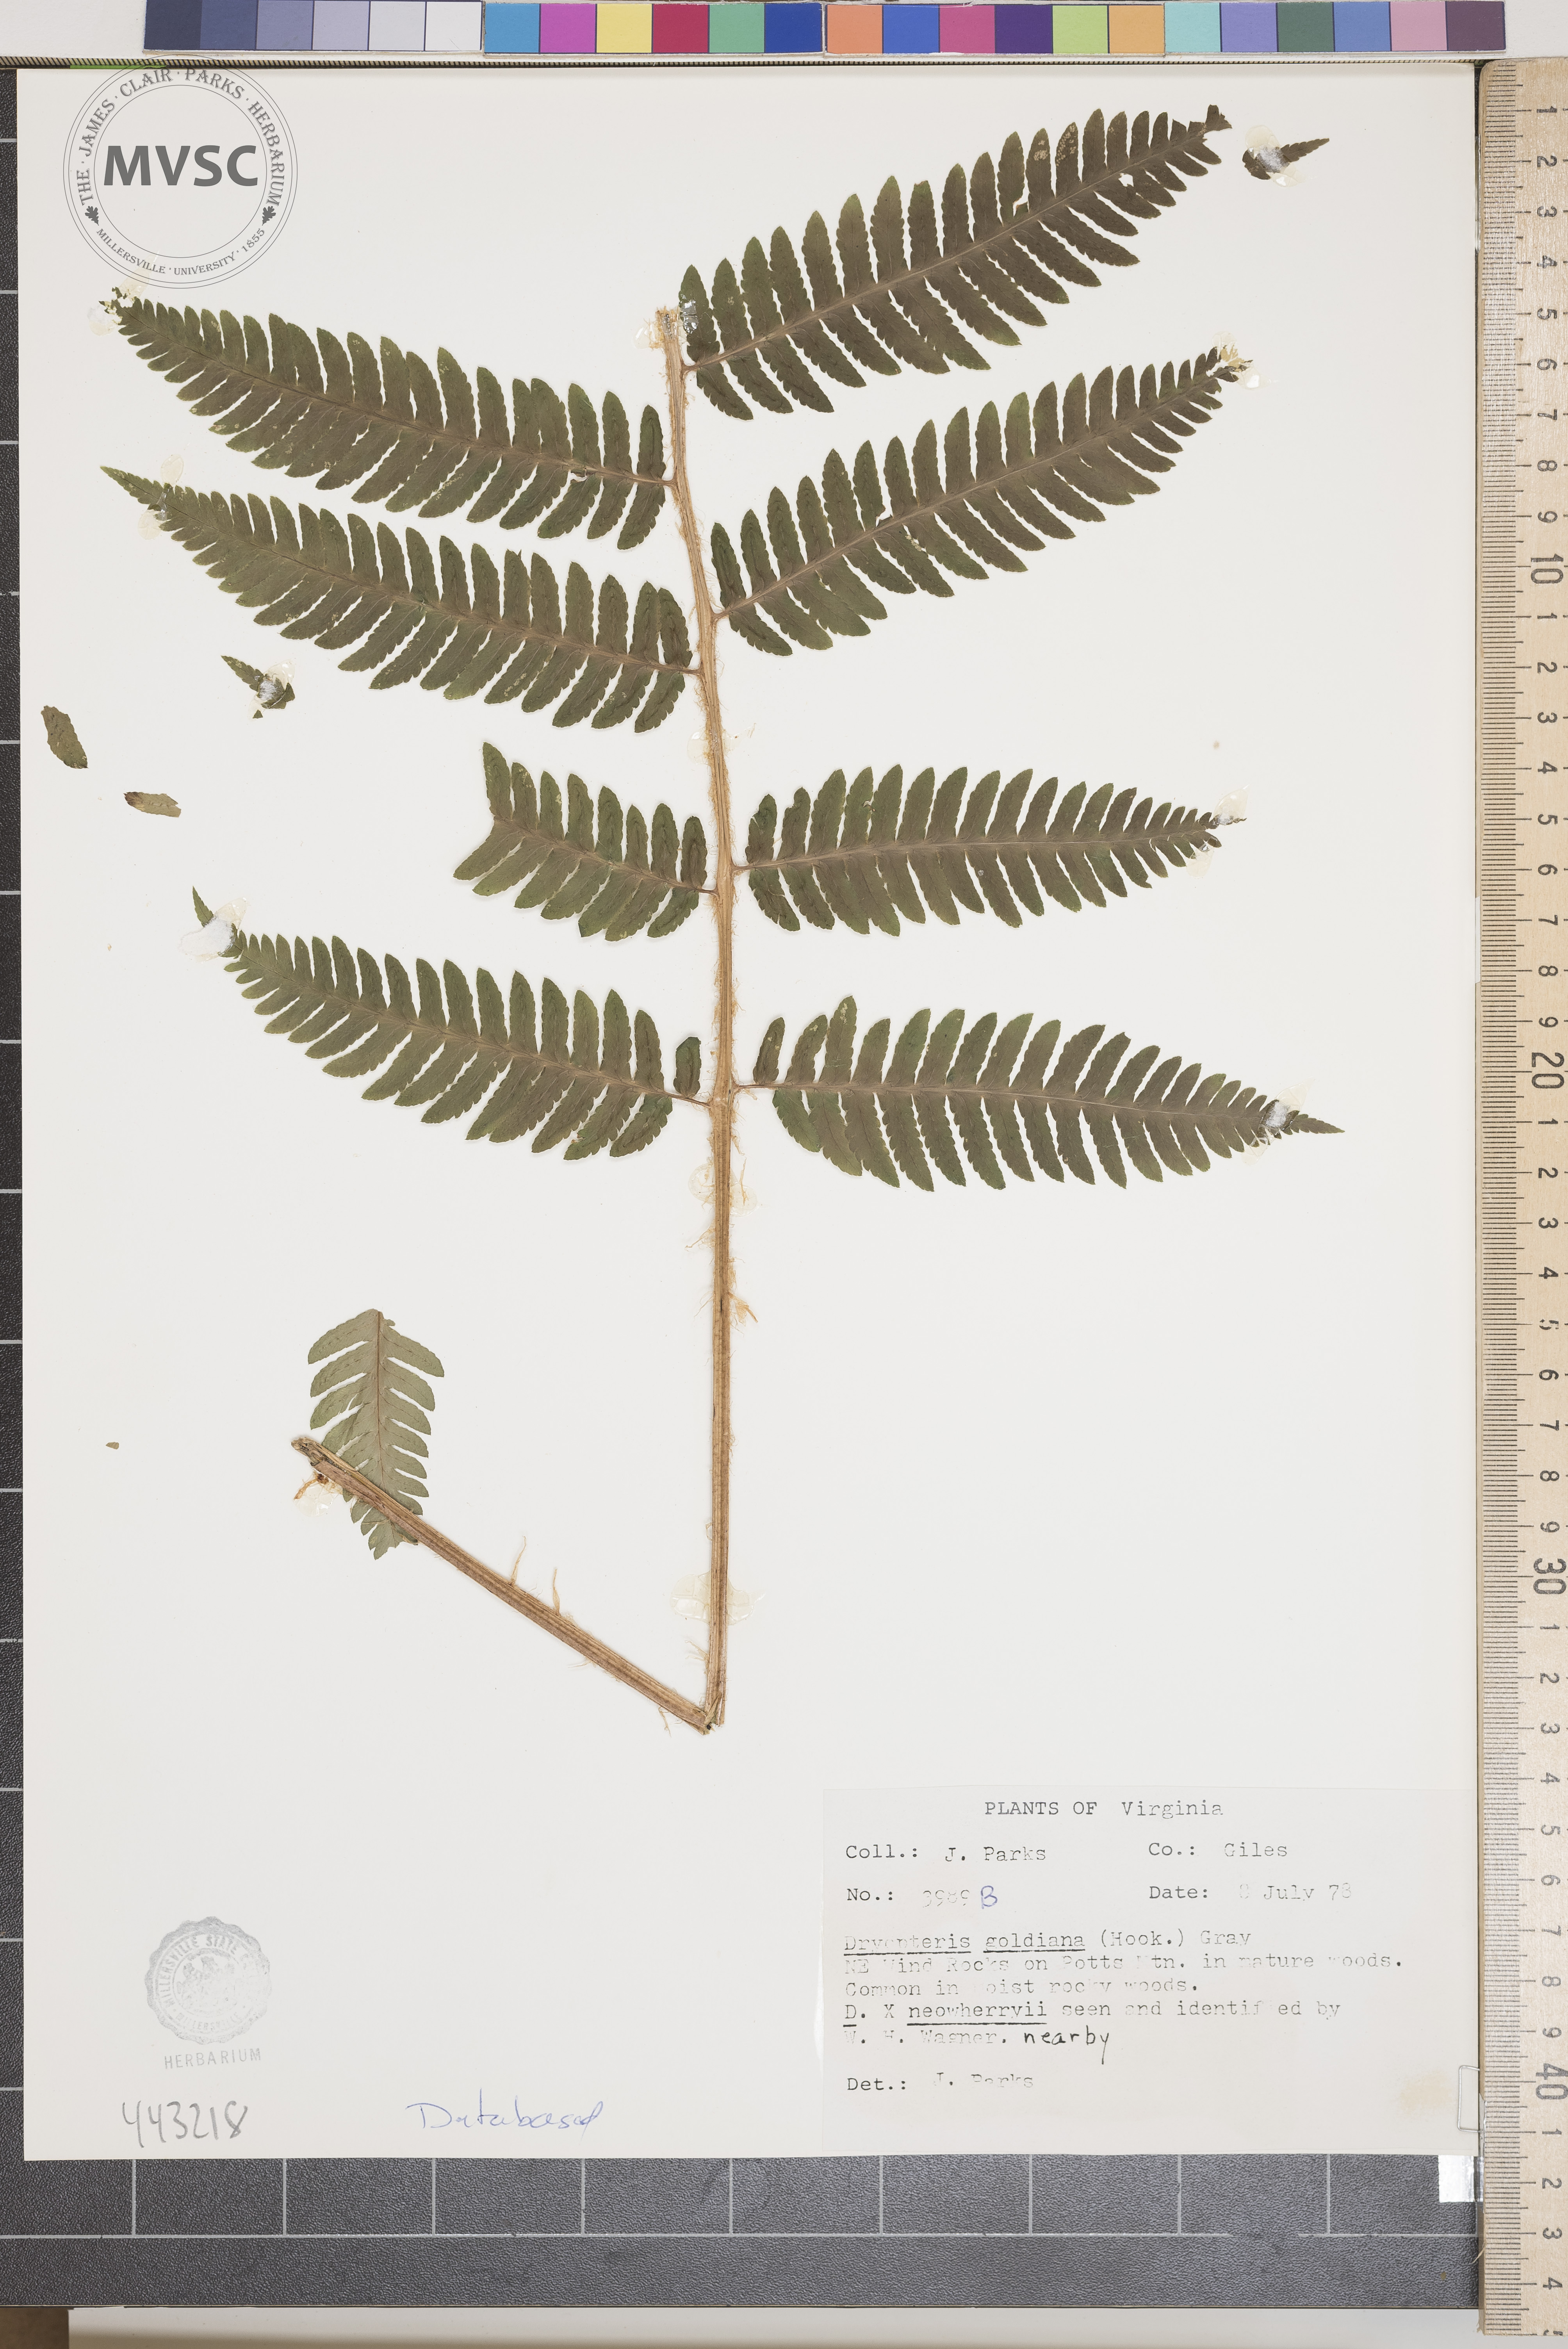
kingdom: Plantae
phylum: Tracheophyta
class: Polypodiopsida
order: Polypodiales
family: Dryopteridaceae
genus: Dryopteris
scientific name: Dryopteris goeldiana
